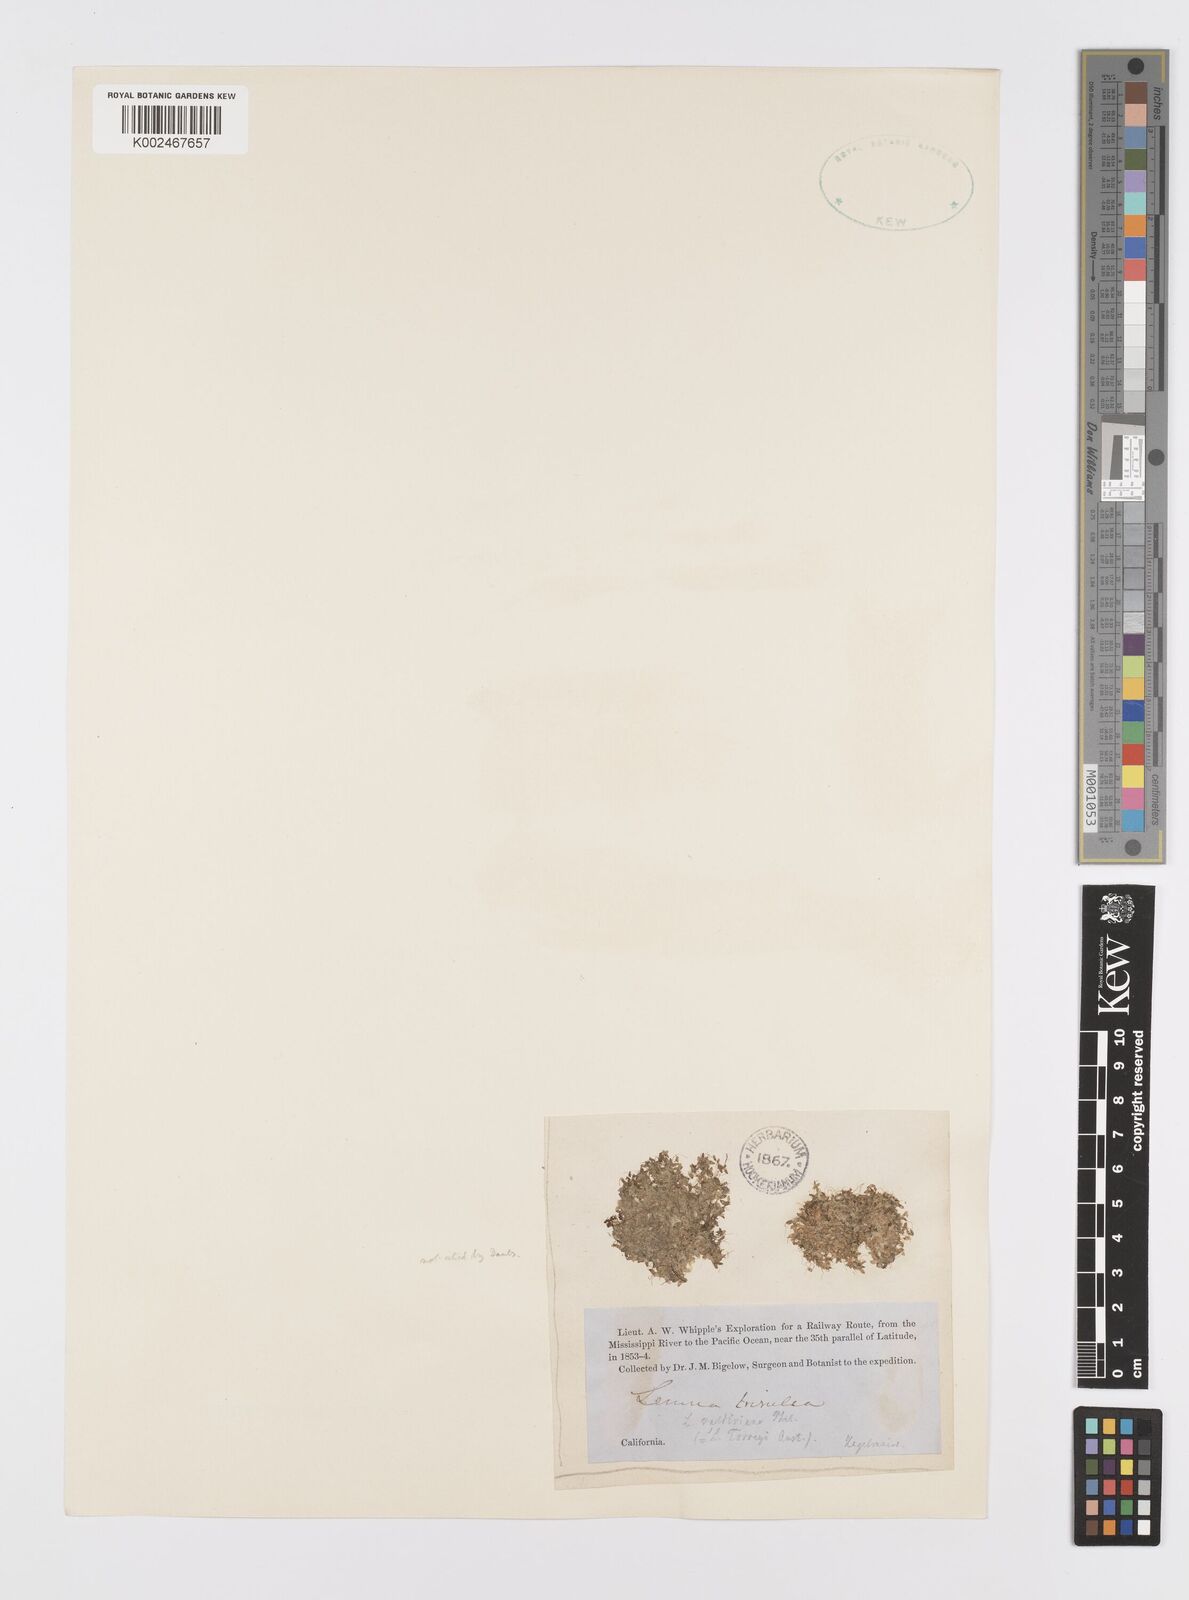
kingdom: Plantae
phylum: Tracheophyta
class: Liliopsida
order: Alismatales
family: Araceae
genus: Lemna
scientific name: Lemna trisulca
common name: Ivy-leaved duckweed
